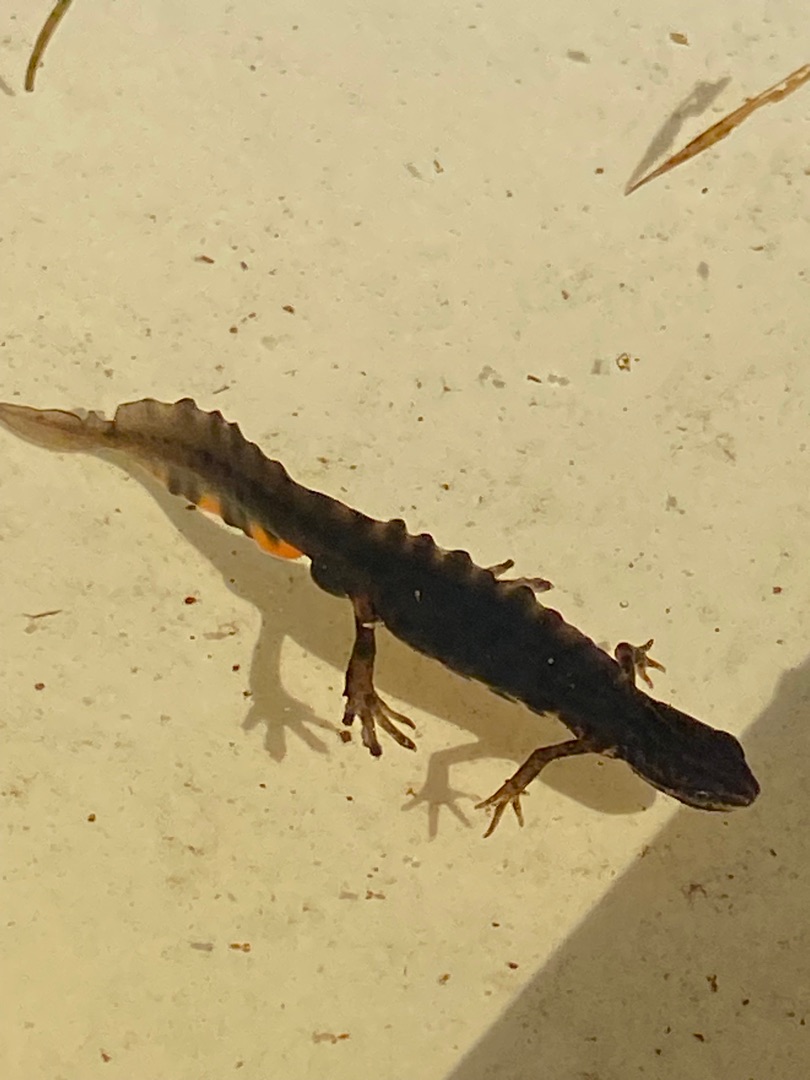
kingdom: Animalia
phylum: Chordata
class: Amphibia
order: Caudata
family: Salamandridae
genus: Lissotriton
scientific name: Lissotriton vulgaris
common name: Lille vandsalamander
